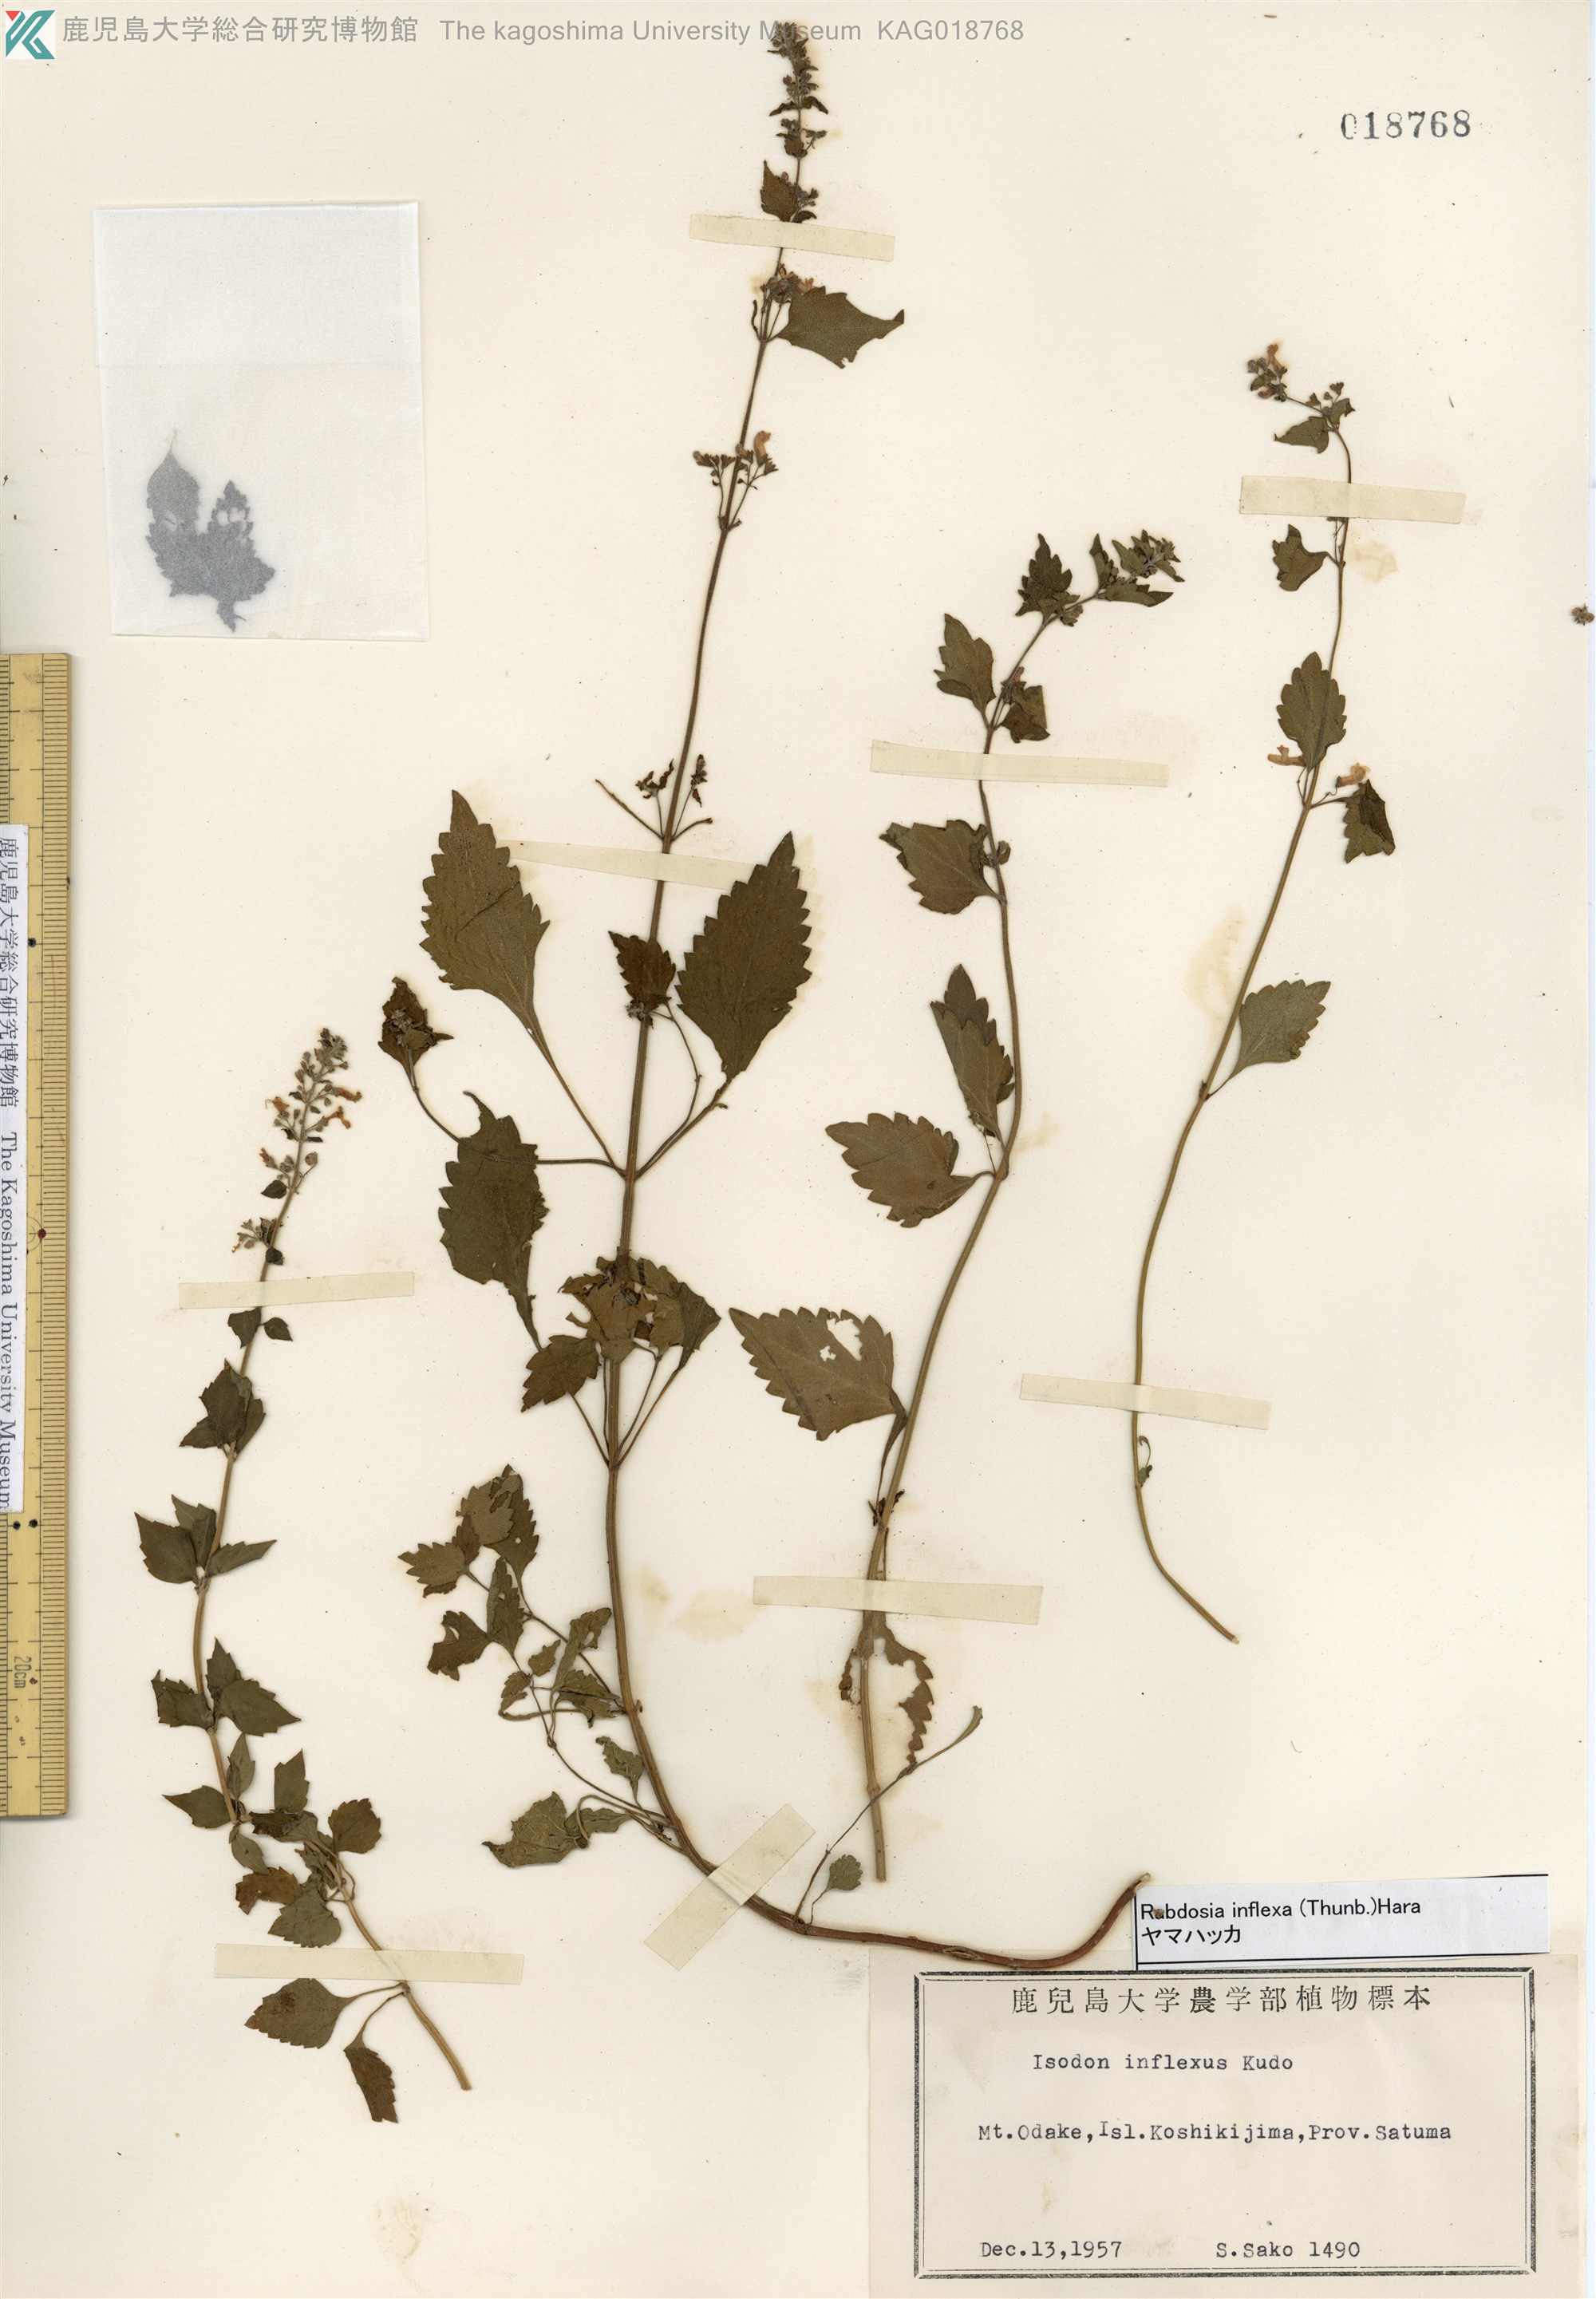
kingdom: Plantae
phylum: Tracheophyta
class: Magnoliopsida
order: Lamiales
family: Lamiaceae
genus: Isodon
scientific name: Isodon inflexus
